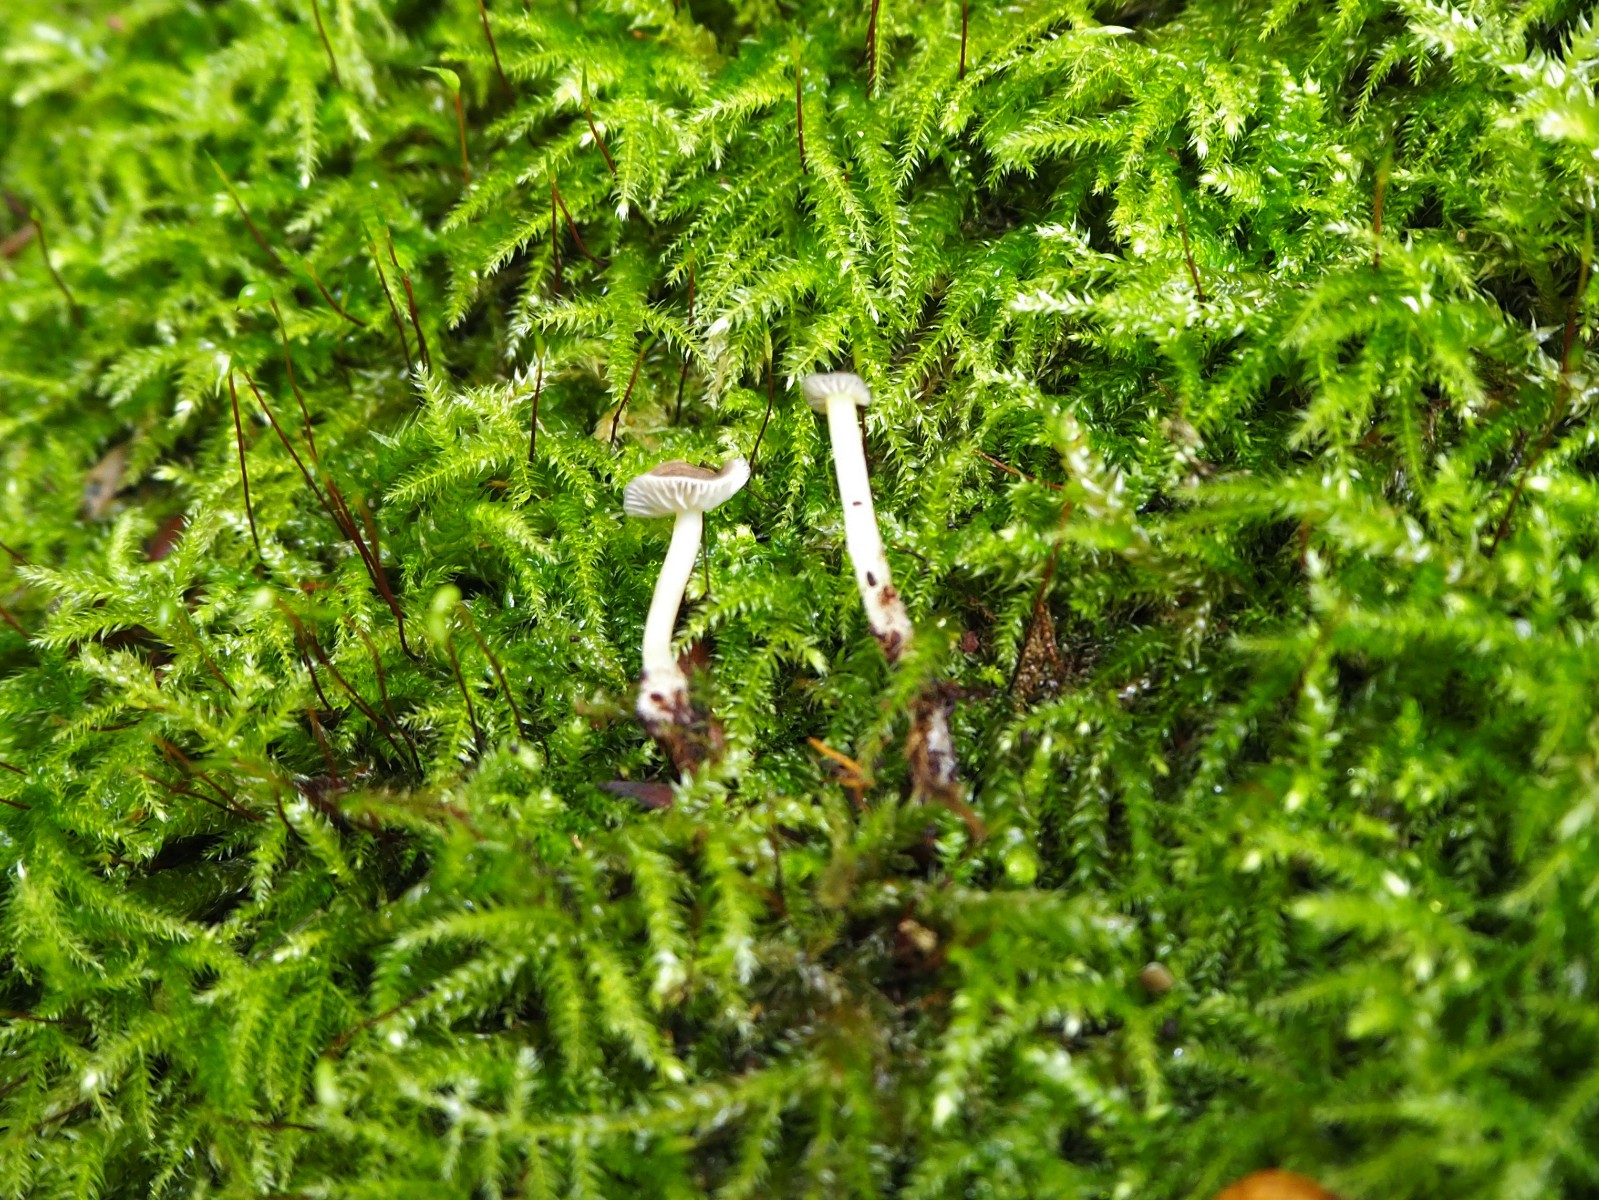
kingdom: Fungi
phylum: Basidiomycota
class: Agaricomycetes
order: Agaricales
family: Porotheleaceae
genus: Phloeomana
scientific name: Phloeomana speirea
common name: kvist-huesvamp
